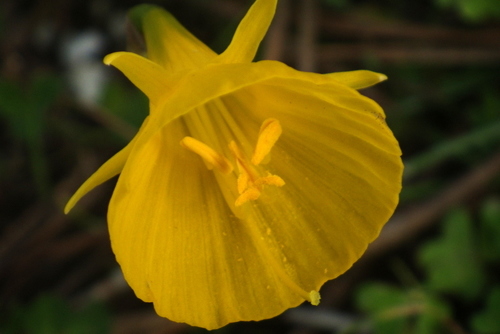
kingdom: Plantae
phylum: Tracheophyta
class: Liliopsida
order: Asparagales
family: Amaryllidaceae
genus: Narcissus
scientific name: Narcissus bulbocodium
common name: Hoop-petticoat daffodil
